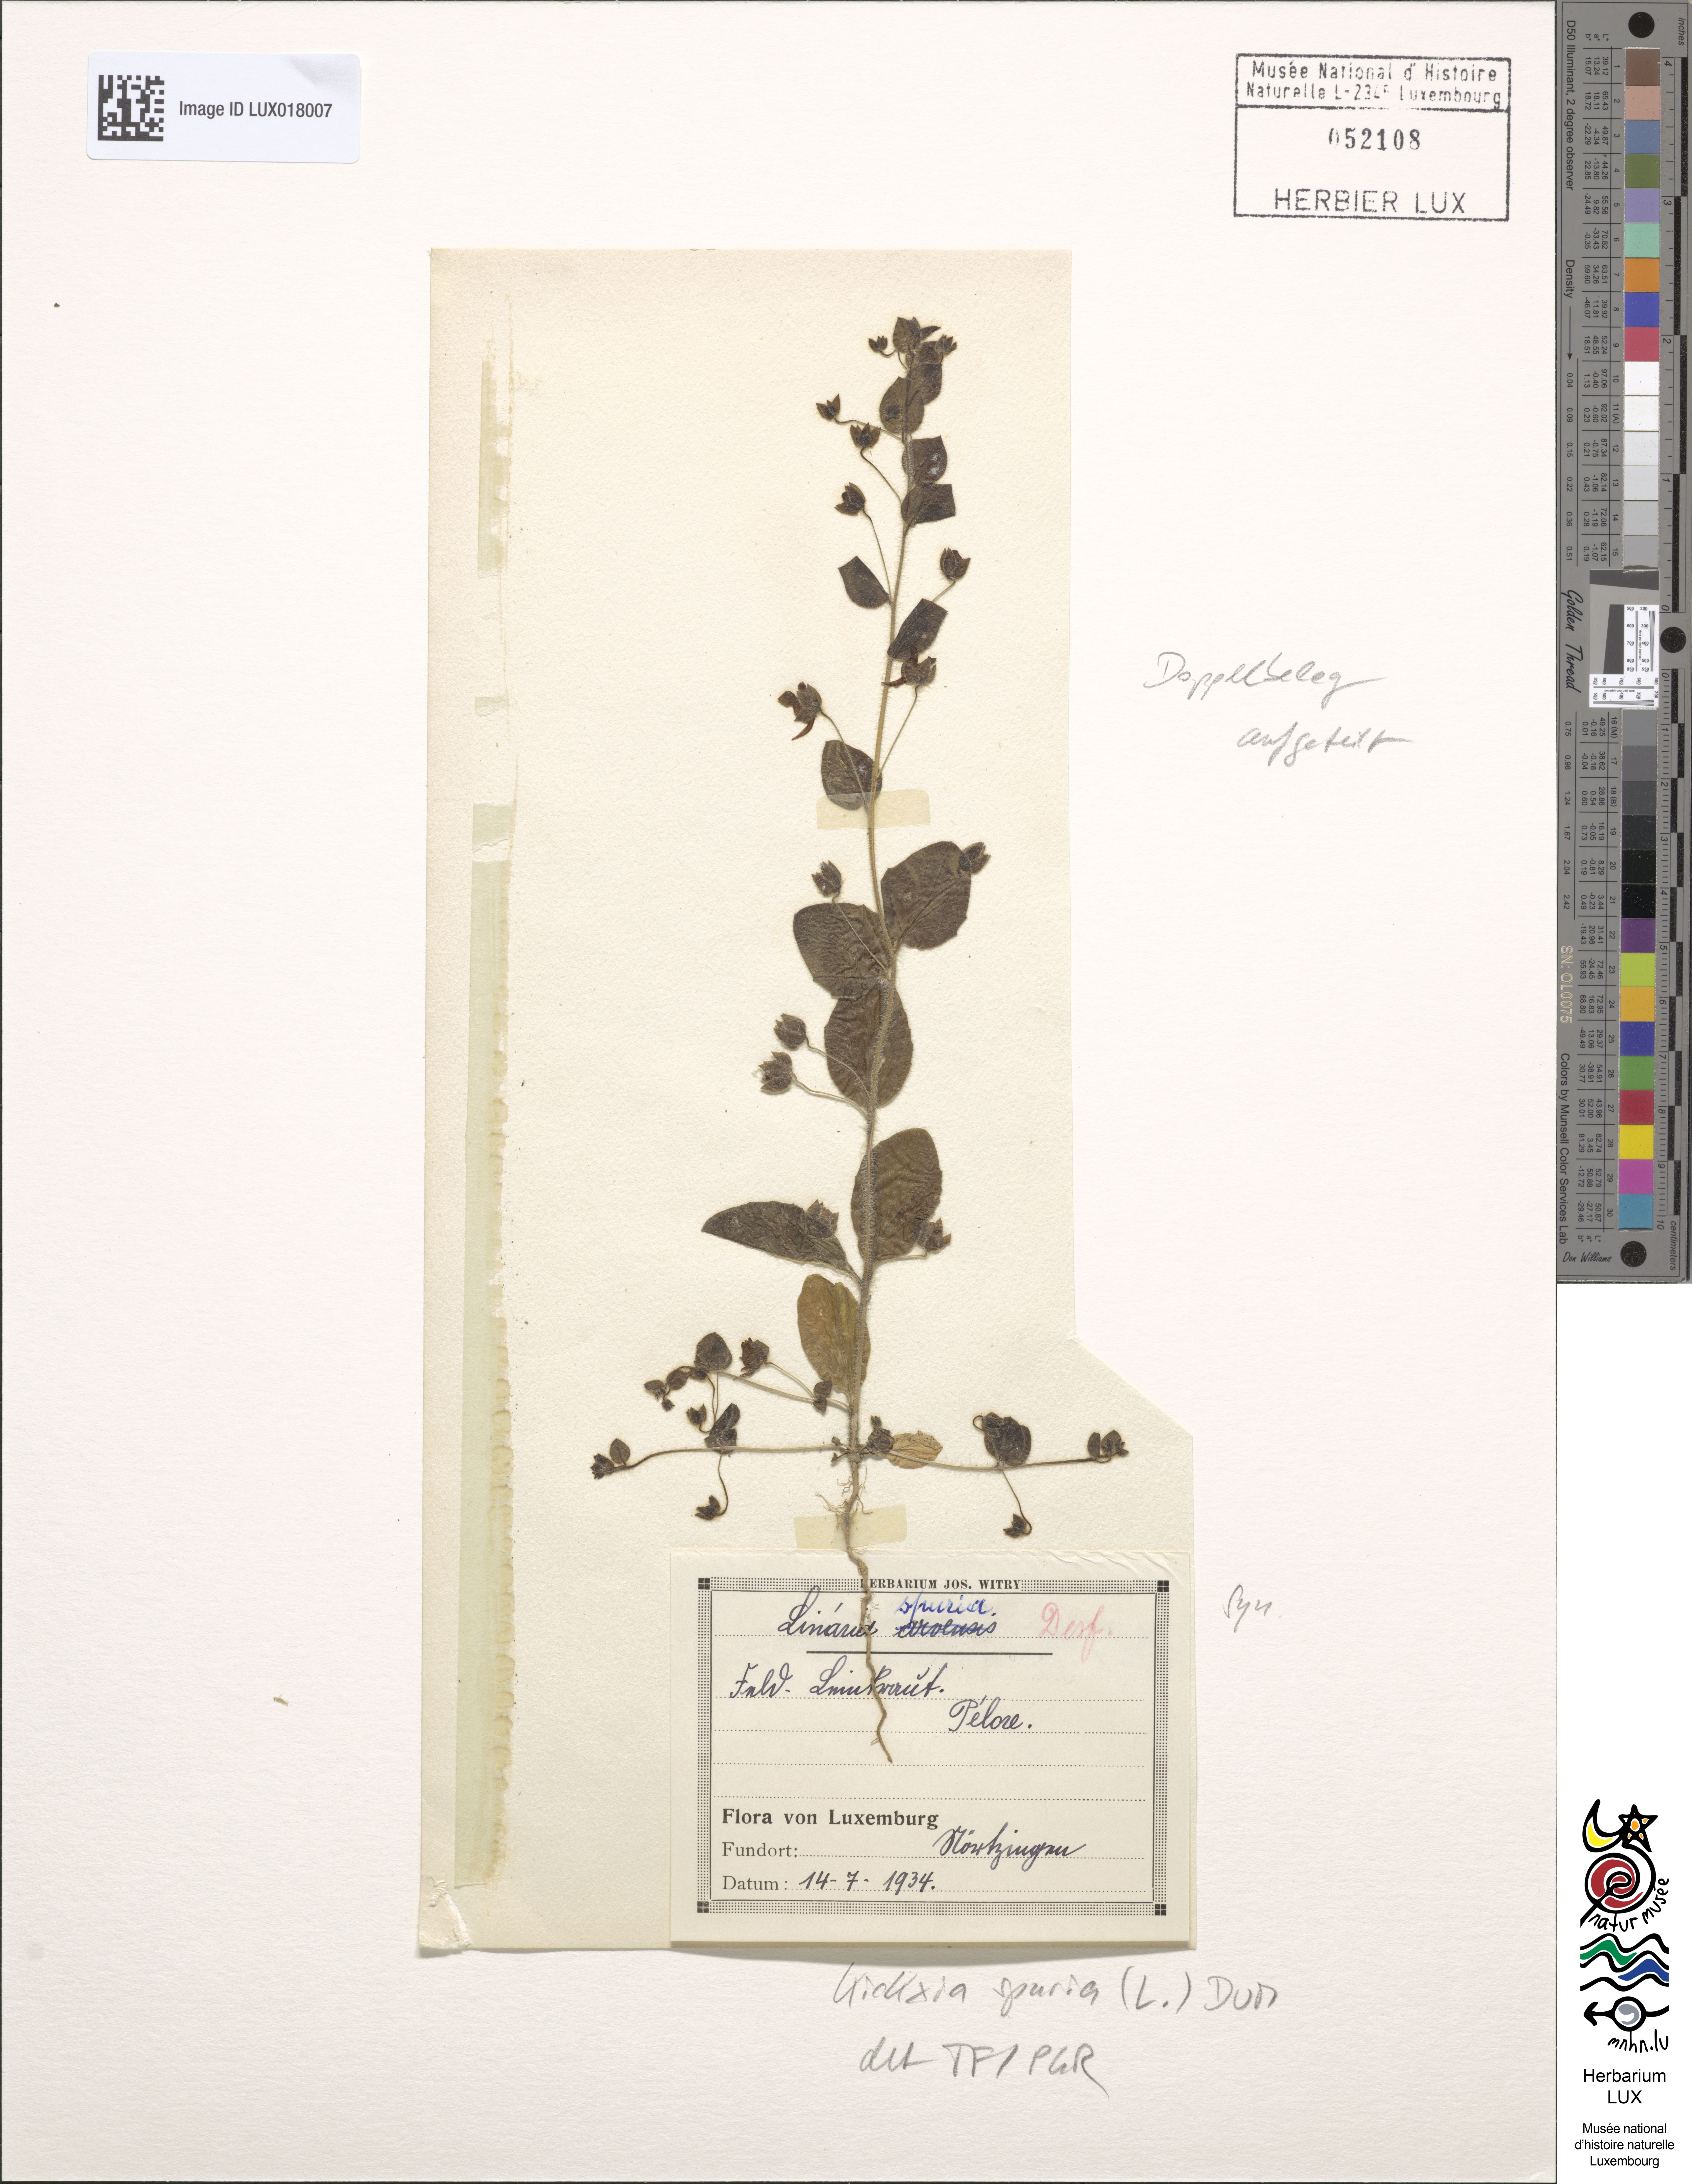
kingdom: Plantae
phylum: Tracheophyta
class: Magnoliopsida
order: Lamiales
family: Plantaginaceae
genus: Kickxia
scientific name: Kickxia spuria
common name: Round-leaved fluellen
